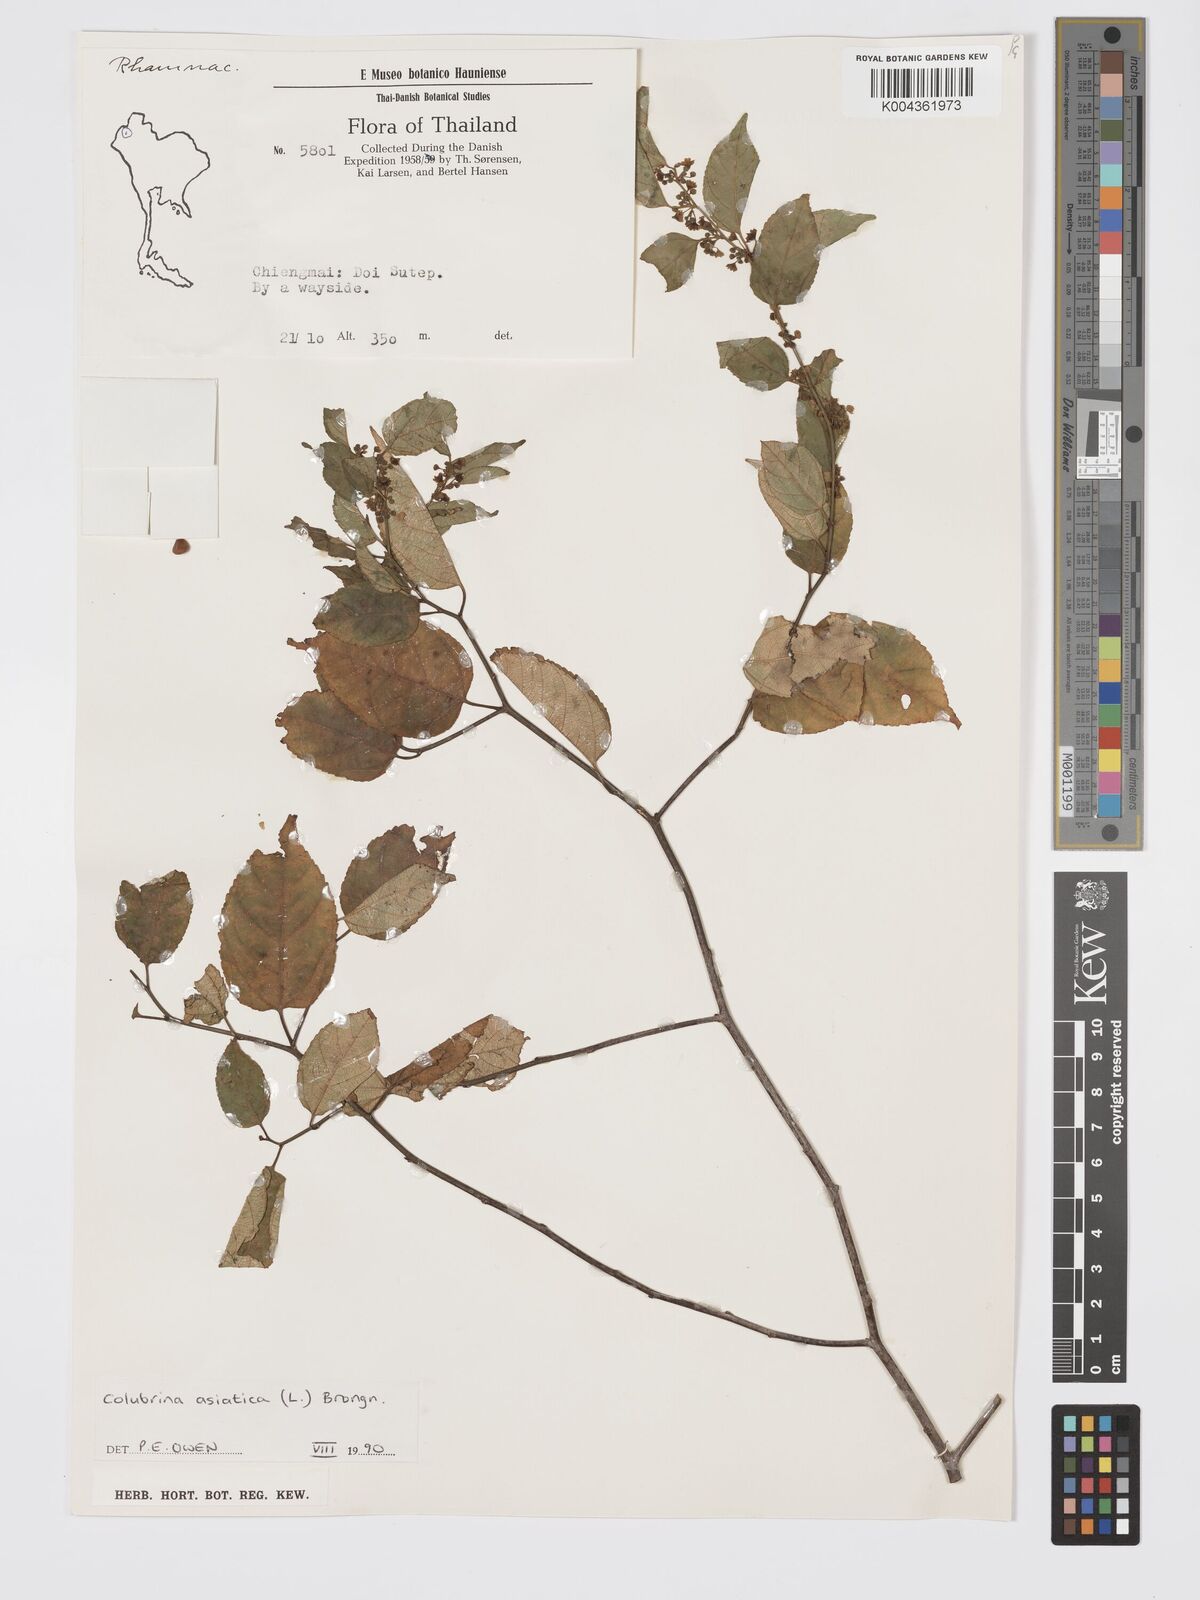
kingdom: Plantae
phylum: Tracheophyta
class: Magnoliopsida
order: Rosales
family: Rhamnaceae
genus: Colubrina
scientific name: Colubrina asiatica
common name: Asian nakedwood
